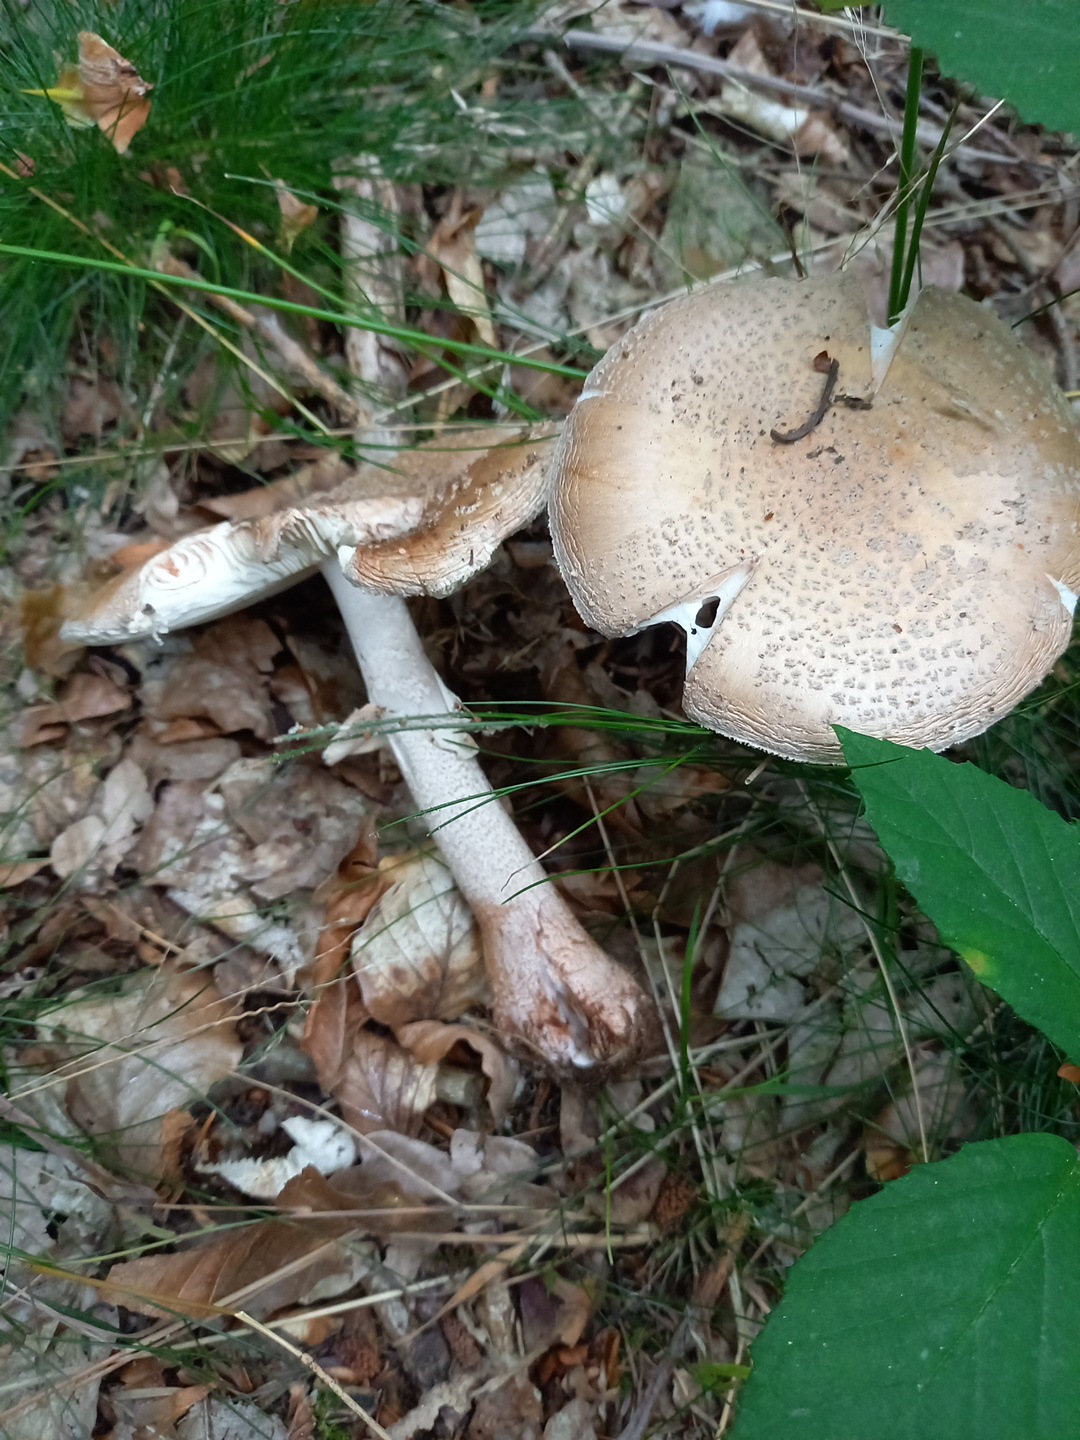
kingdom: Fungi
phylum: Basidiomycota
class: Agaricomycetes
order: Agaricales
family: Amanitaceae
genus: Amanita
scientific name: Amanita rubescens
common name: rødmende fluesvamp
